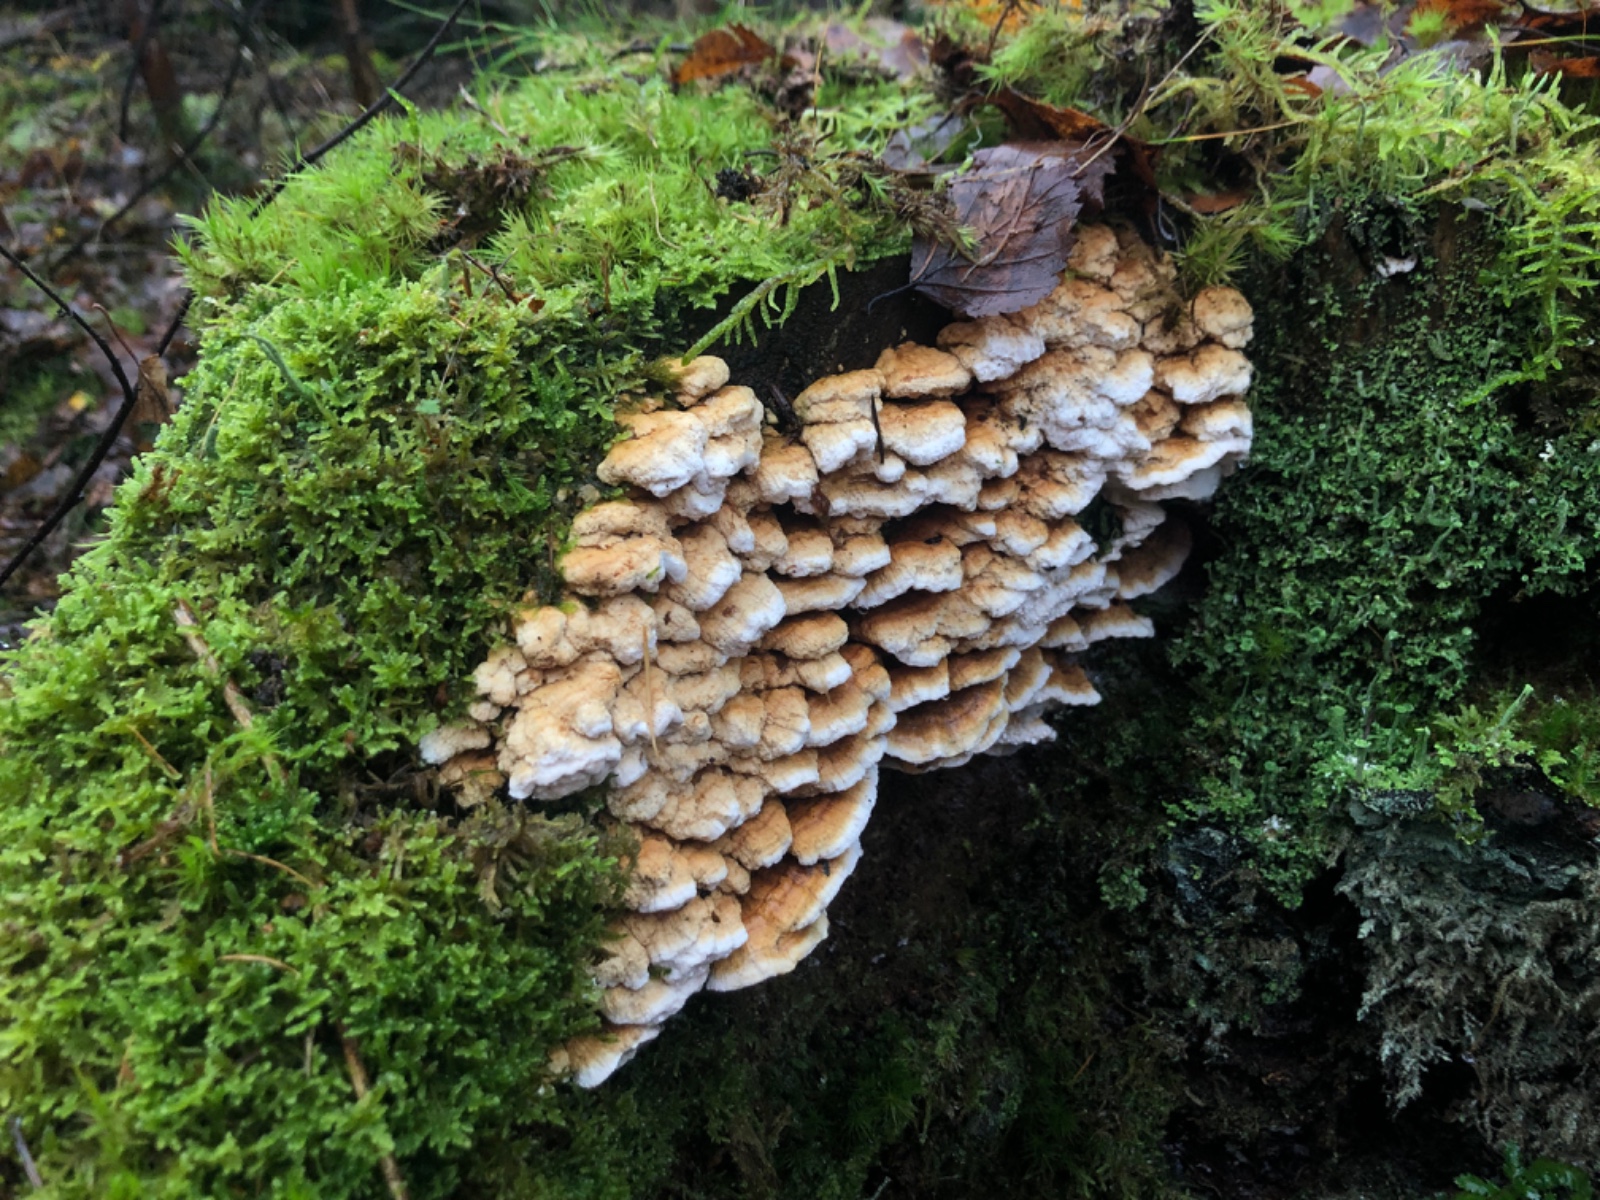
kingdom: Fungi
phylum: Basidiomycota
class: Agaricomycetes
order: Polyporales
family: Fomitopsidaceae
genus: Neoantrodia
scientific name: Neoantrodia serialis
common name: række-sejporesvamp
